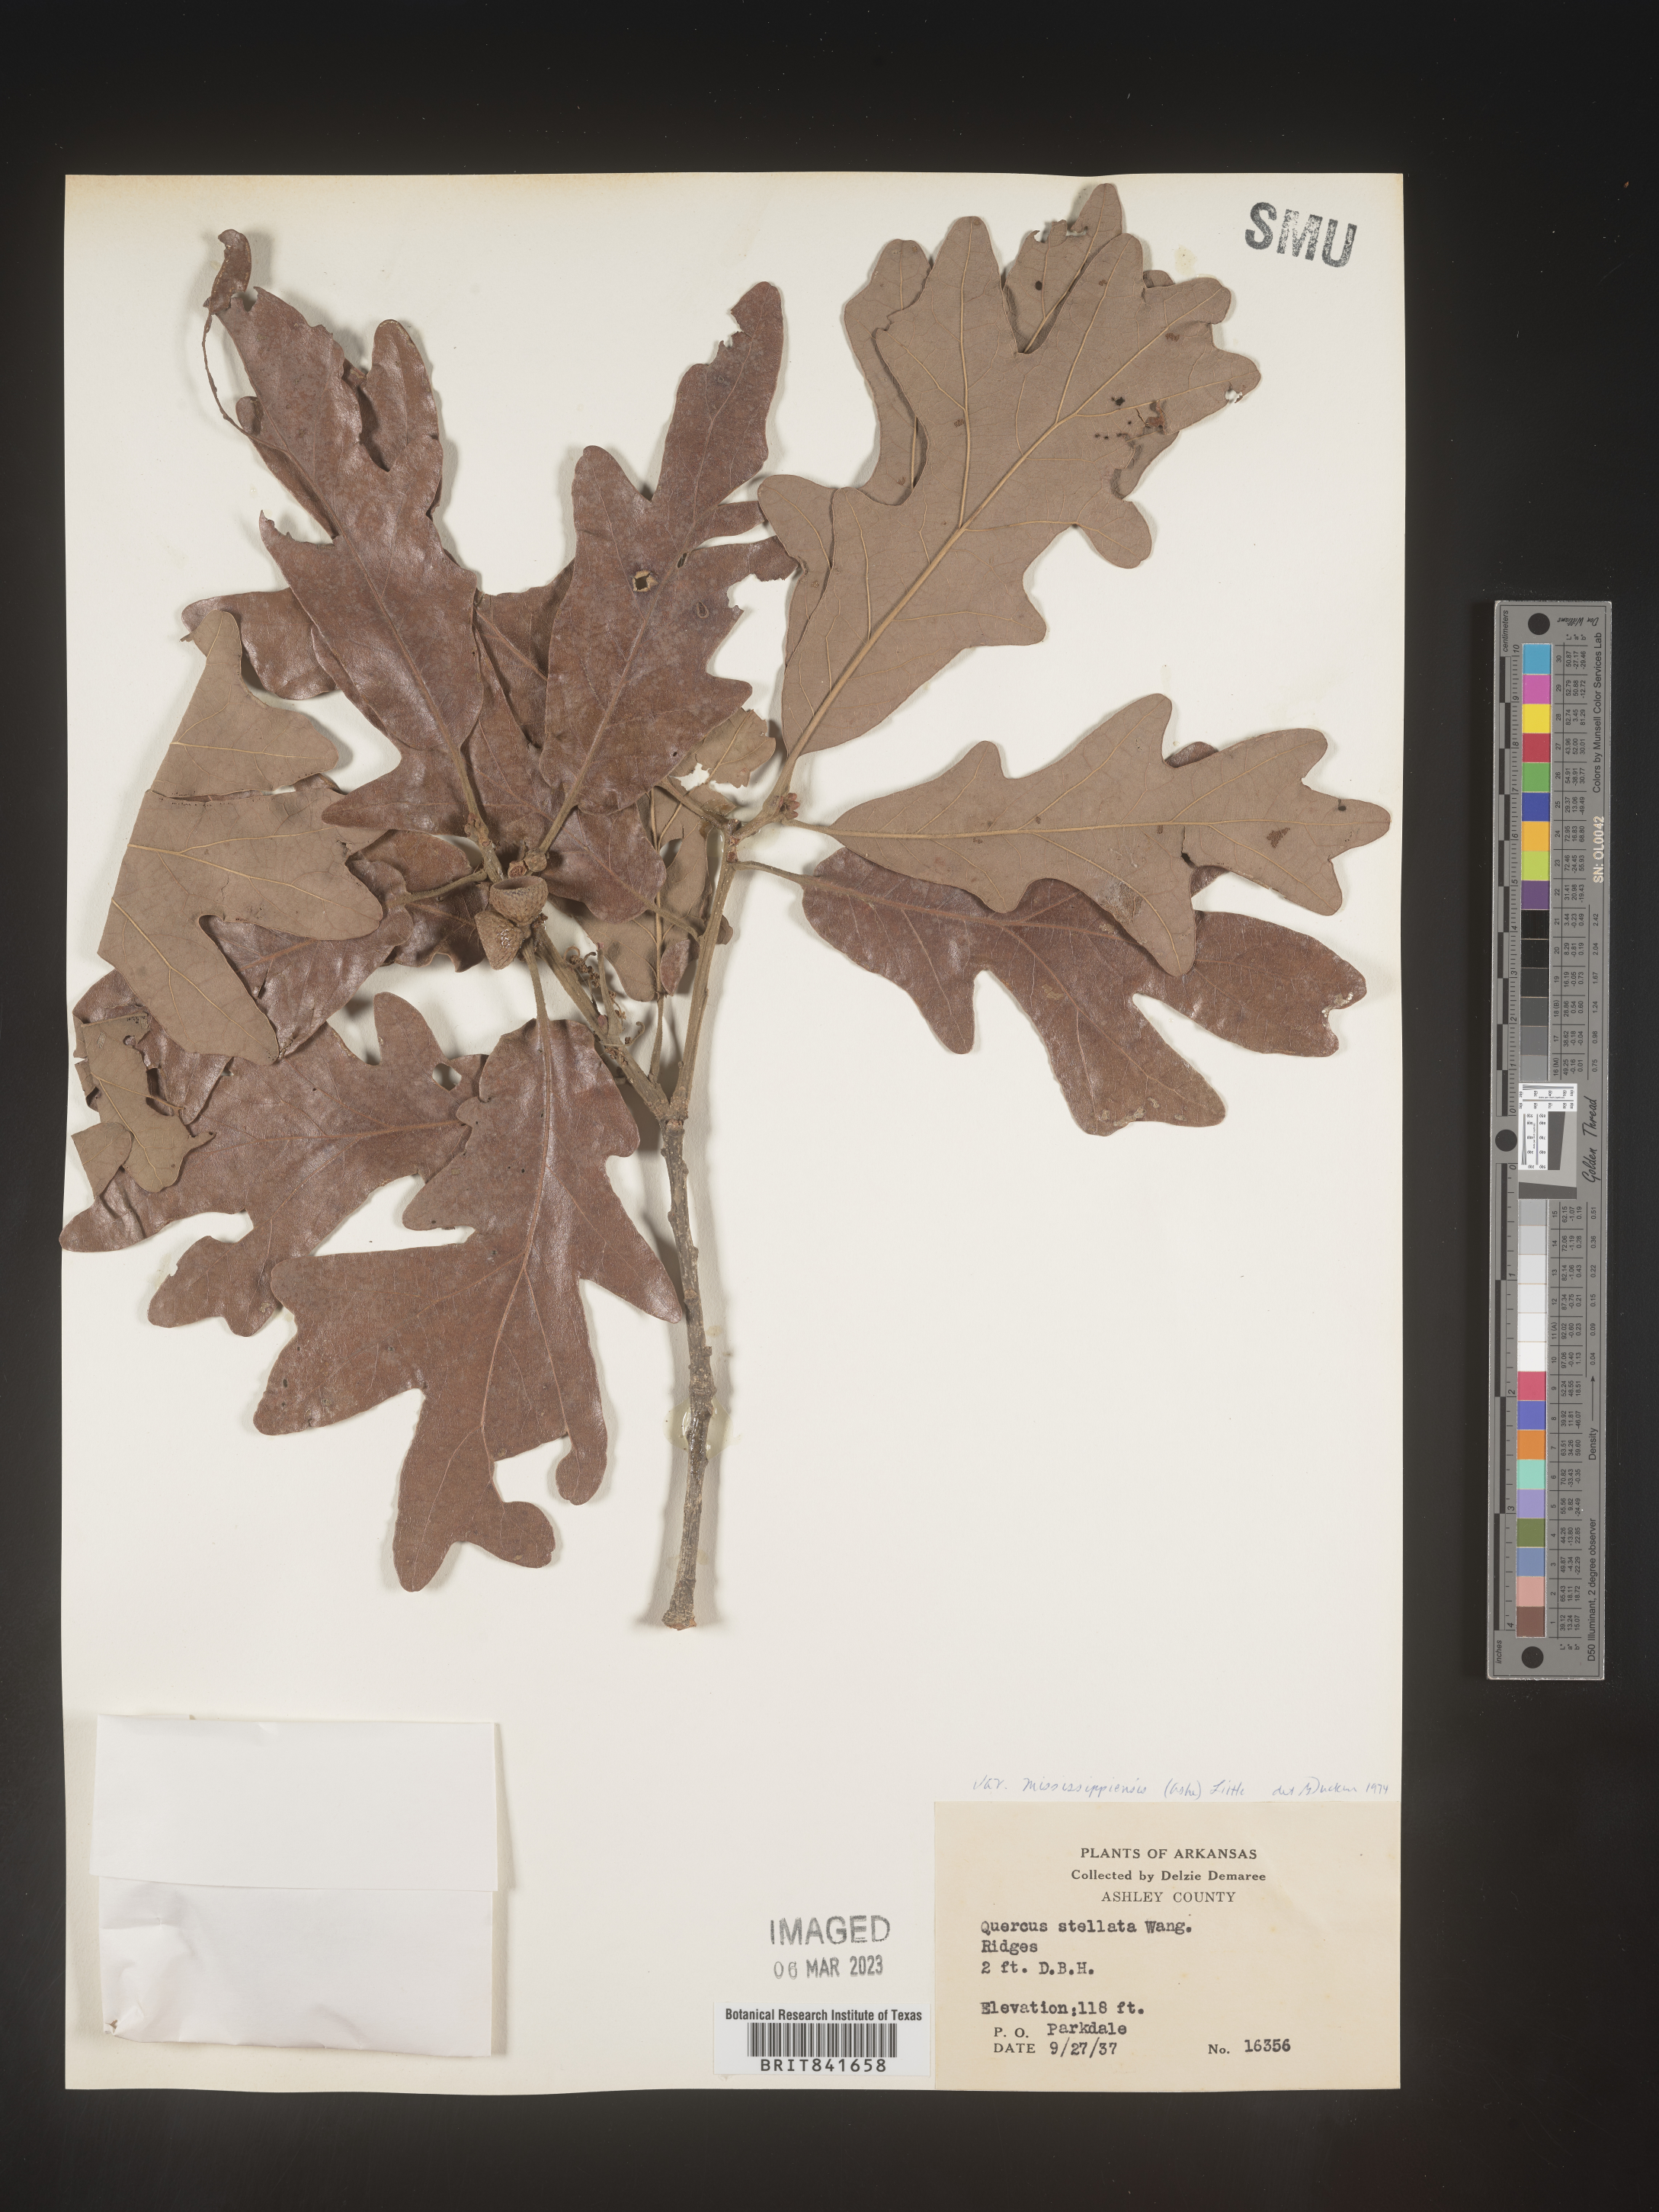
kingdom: Plantae
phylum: Tracheophyta
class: Magnoliopsida
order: Fagales
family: Fagaceae
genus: Quercus
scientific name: Quercus stellata
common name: Post oak
